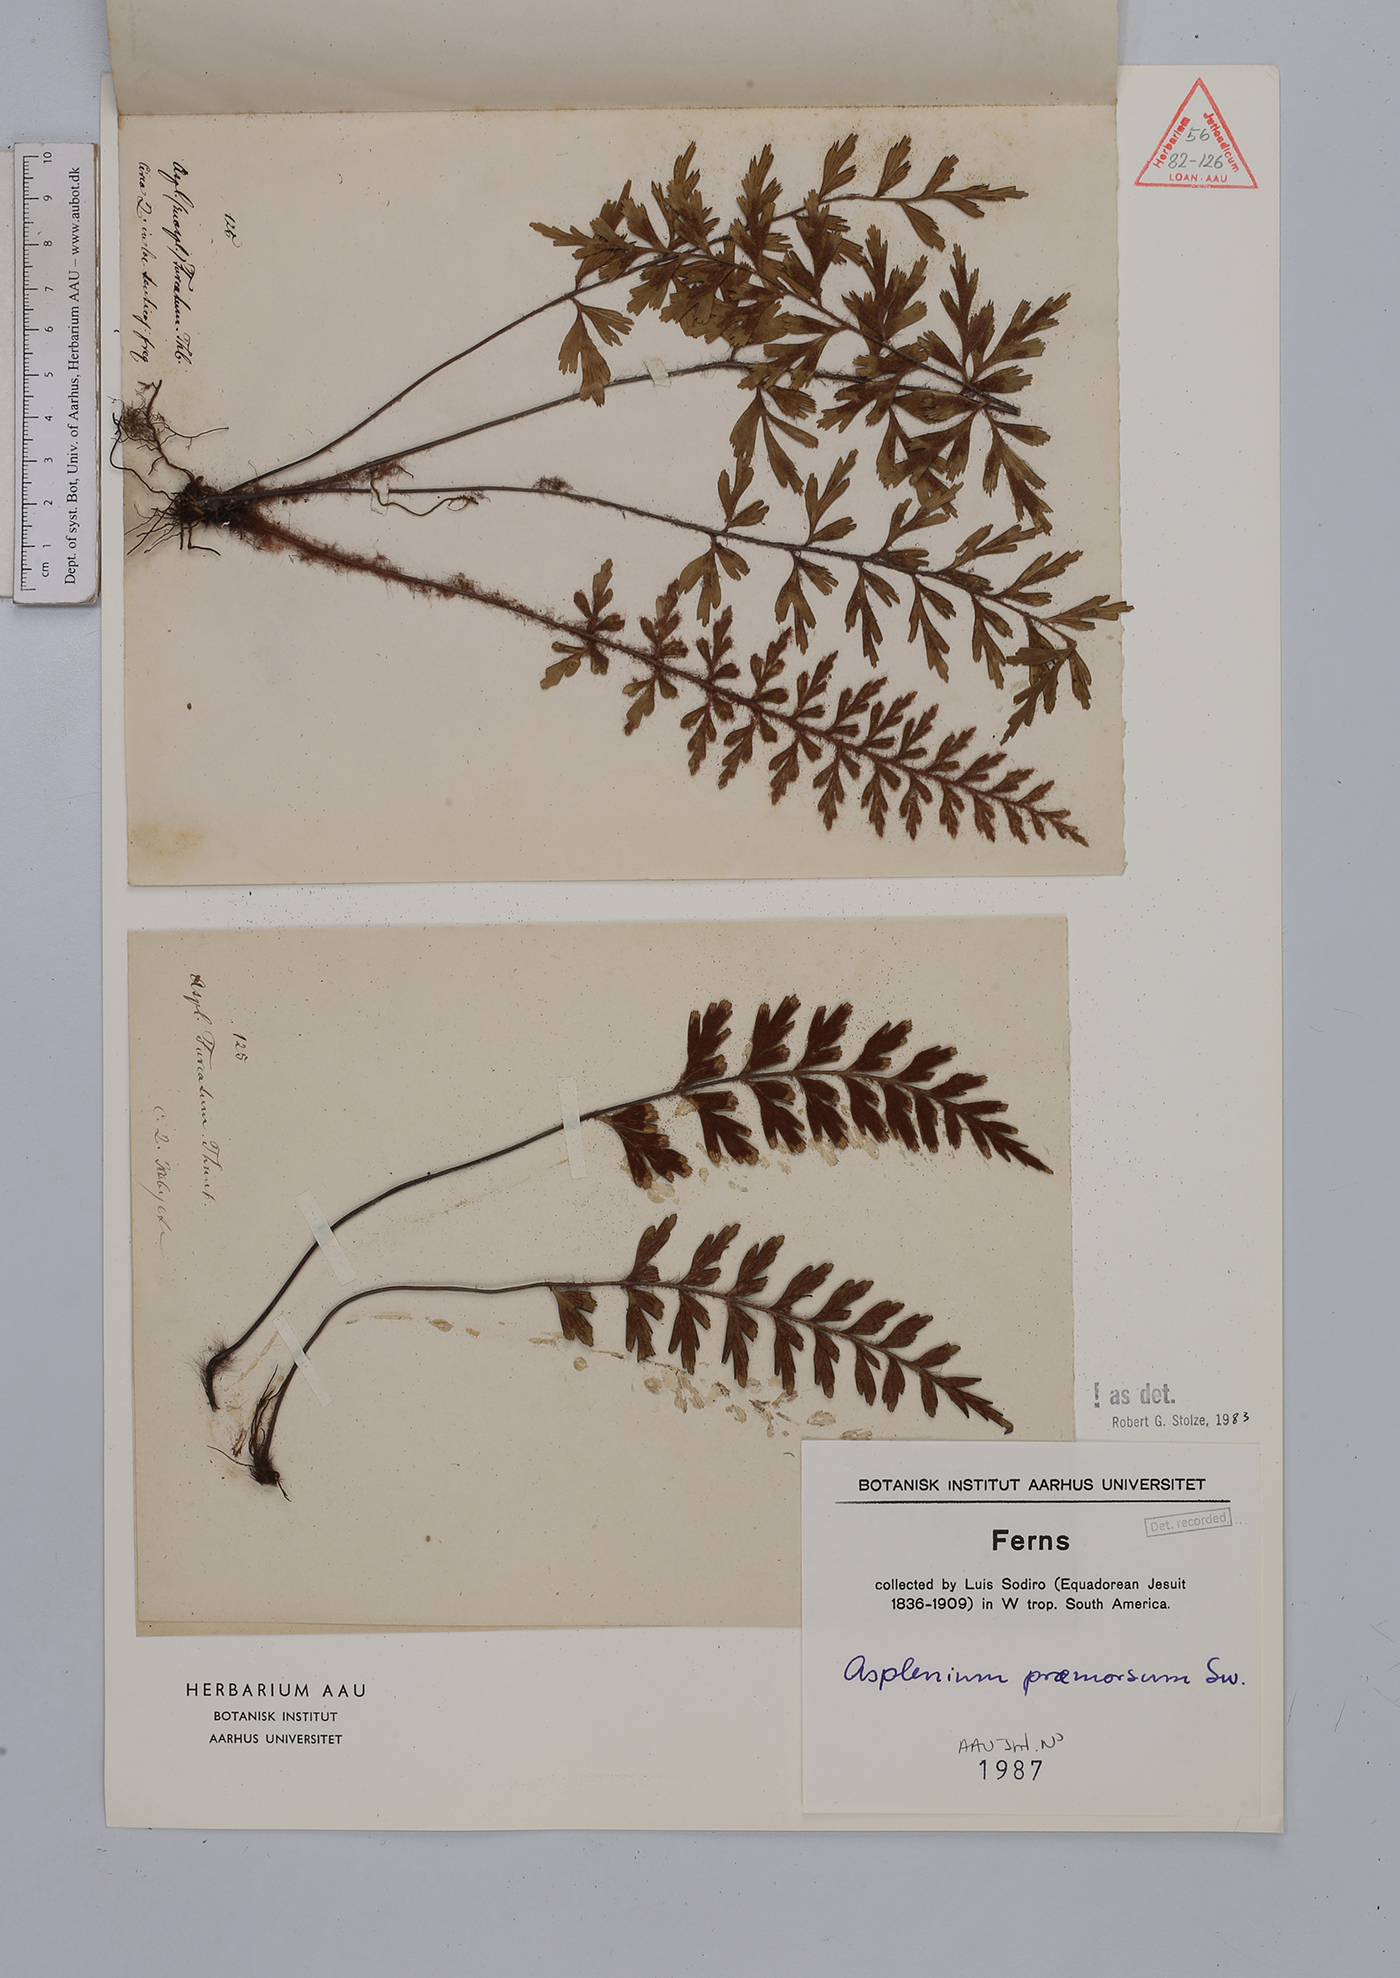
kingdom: Plantae
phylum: Tracheophyta
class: Polypodiopsida
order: Polypodiales
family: Aspleniaceae
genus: Asplenium
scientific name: Asplenium praemorsum
